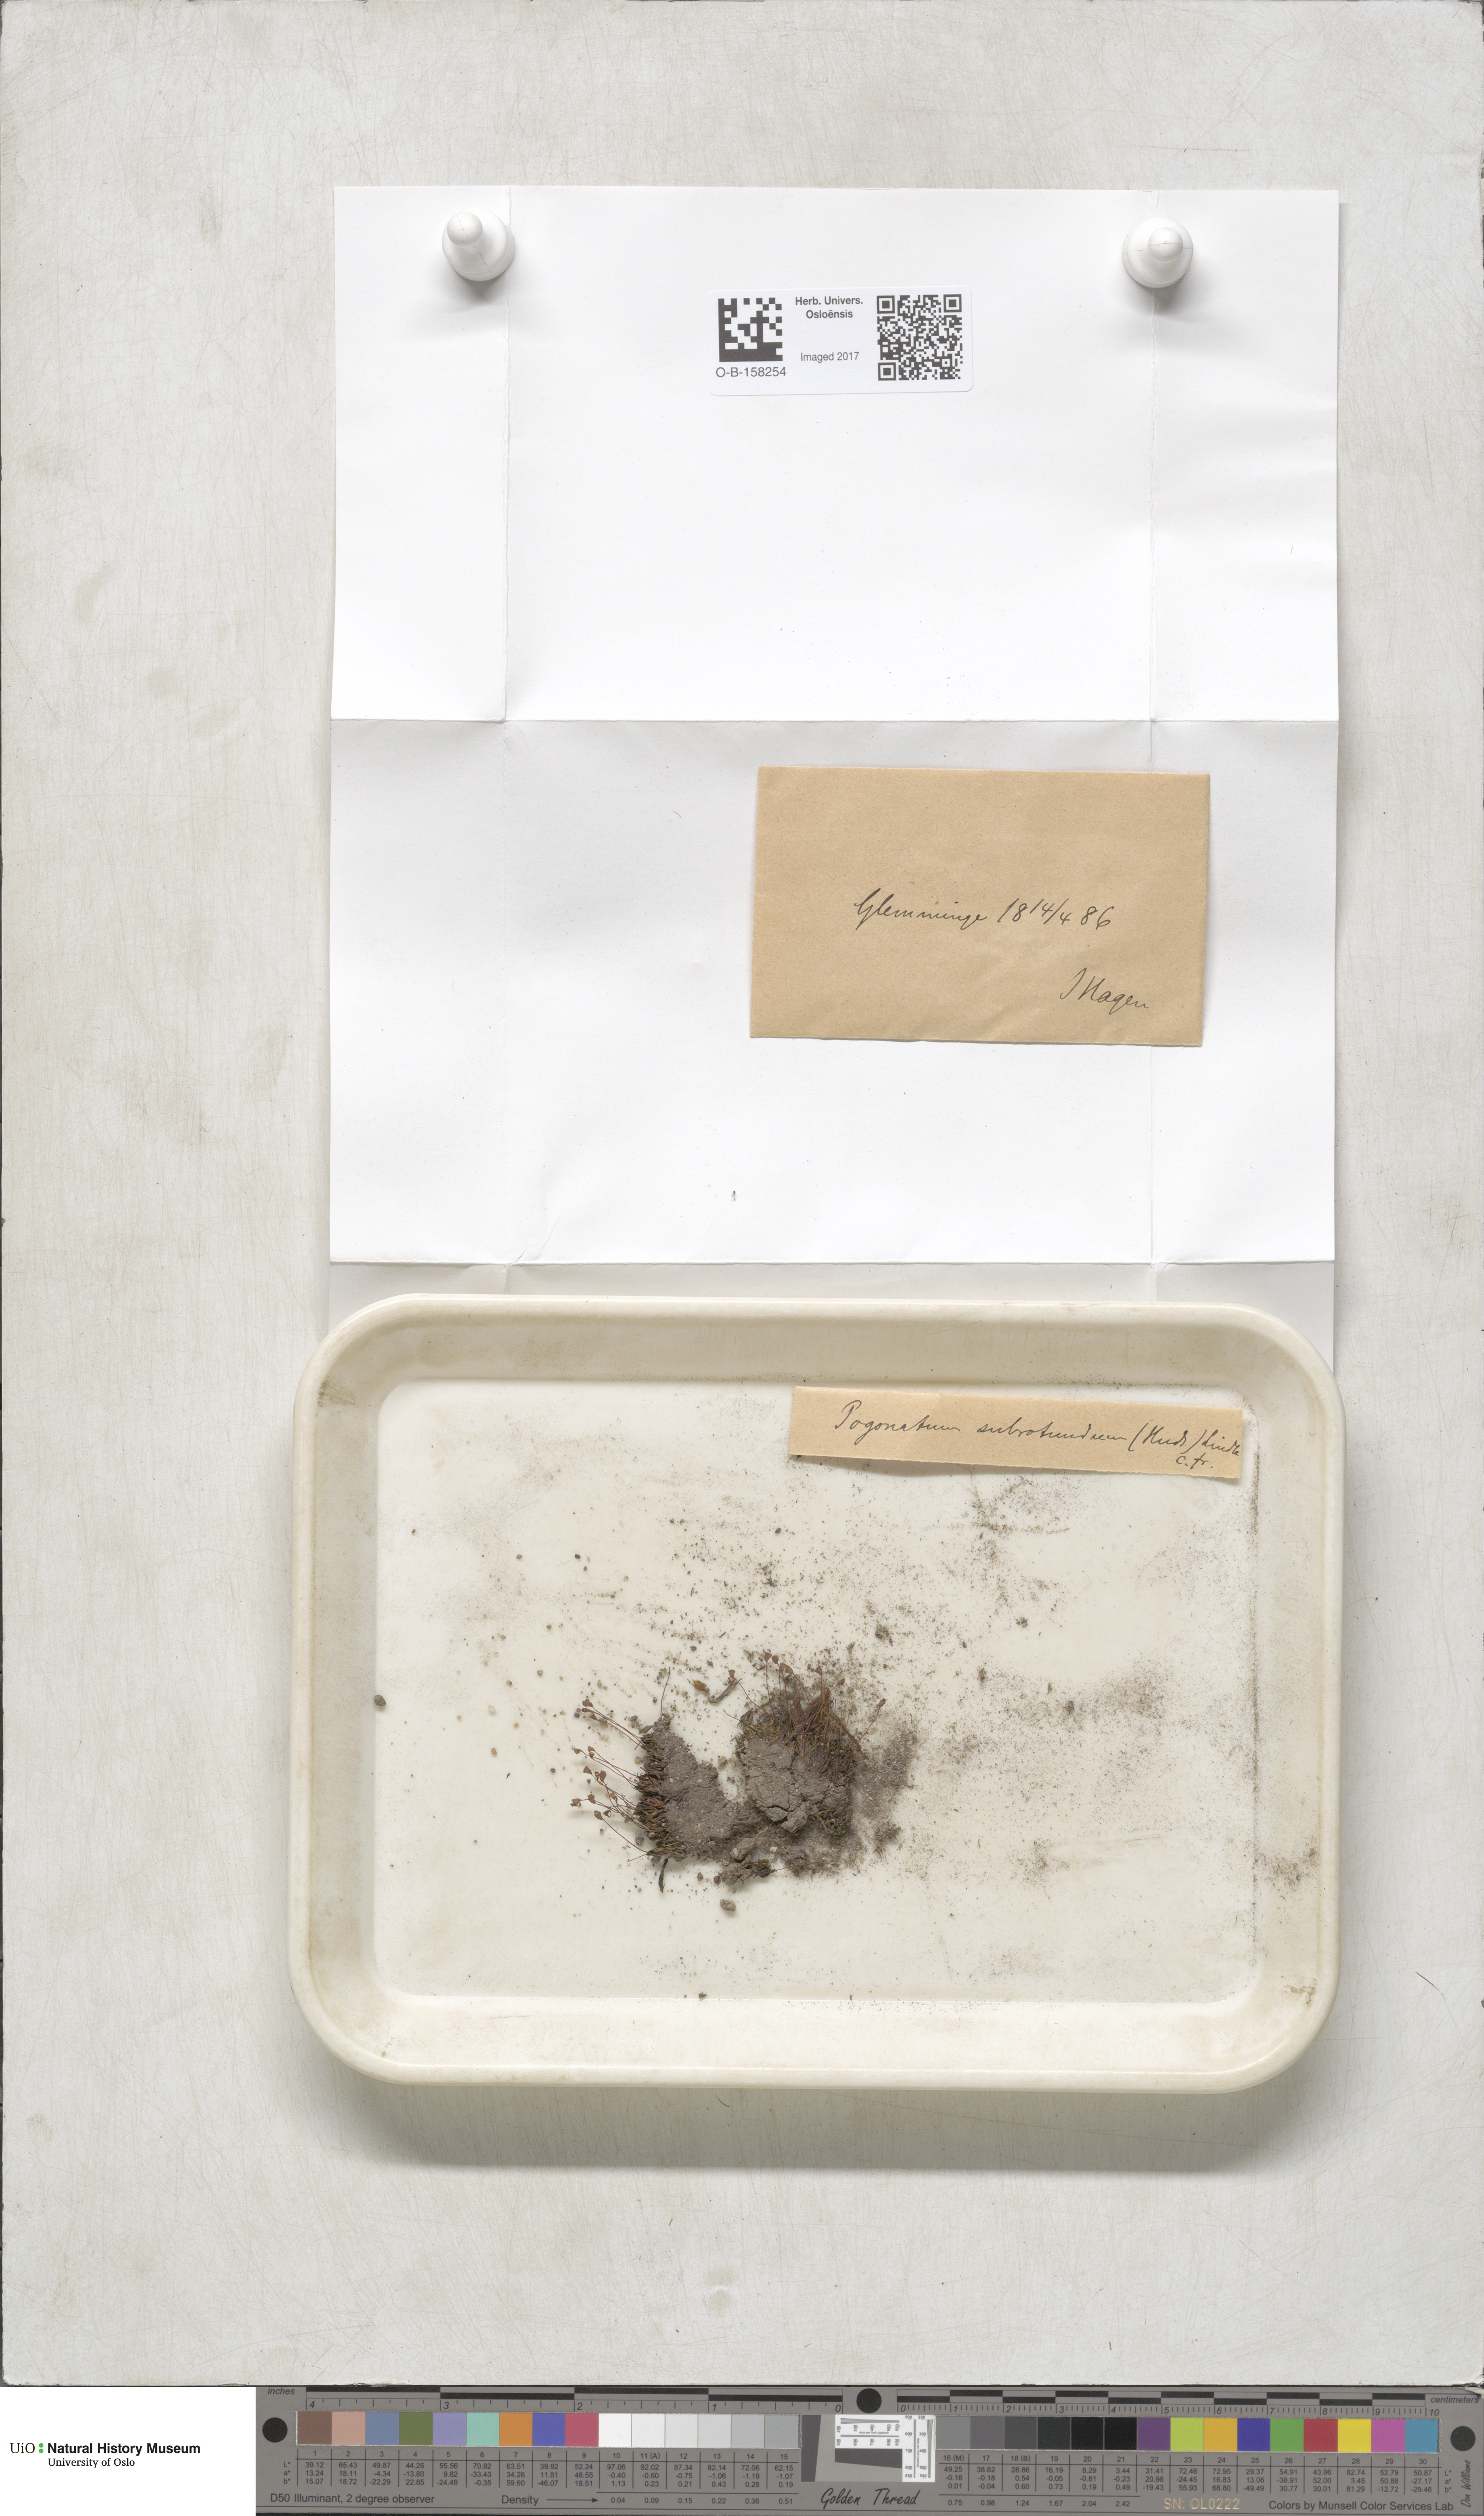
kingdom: Plantae
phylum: Bryophyta
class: Polytrichopsida
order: Polytrichales
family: Polytrichaceae
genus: Pogonatum
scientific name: Pogonatum nanum
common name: Dwarf haircap
